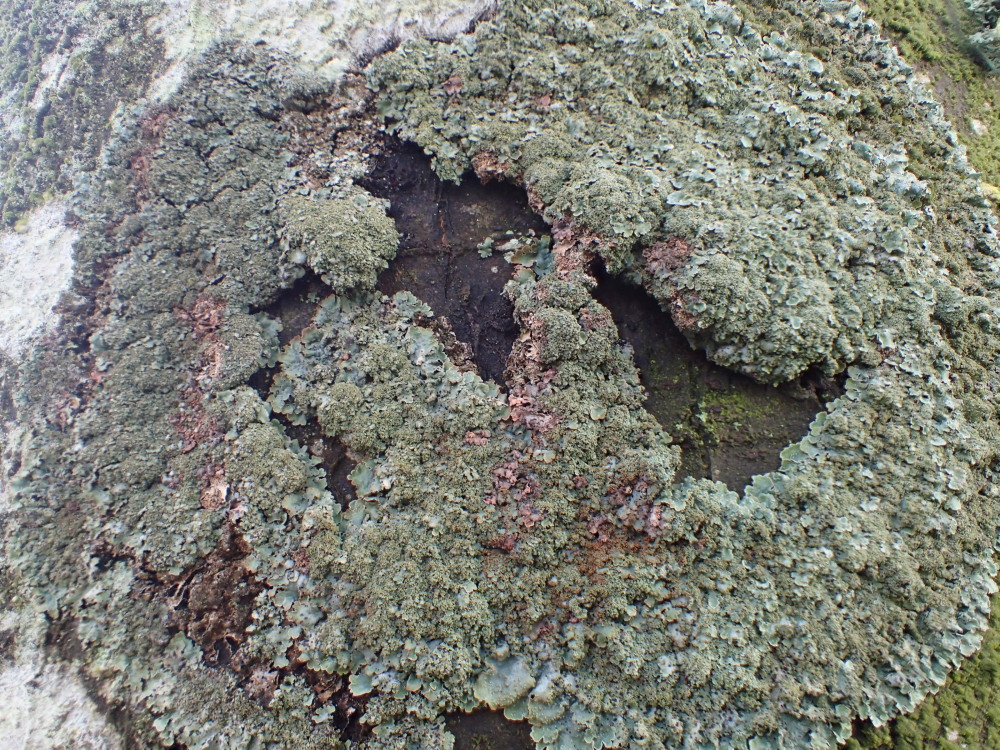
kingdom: Fungi
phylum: Ascomycota
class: Lecanoromycetes
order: Lecanorales
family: Parmeliaceae
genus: Parmelia
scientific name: Parmelia ernstiae
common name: rimstift-skållav
